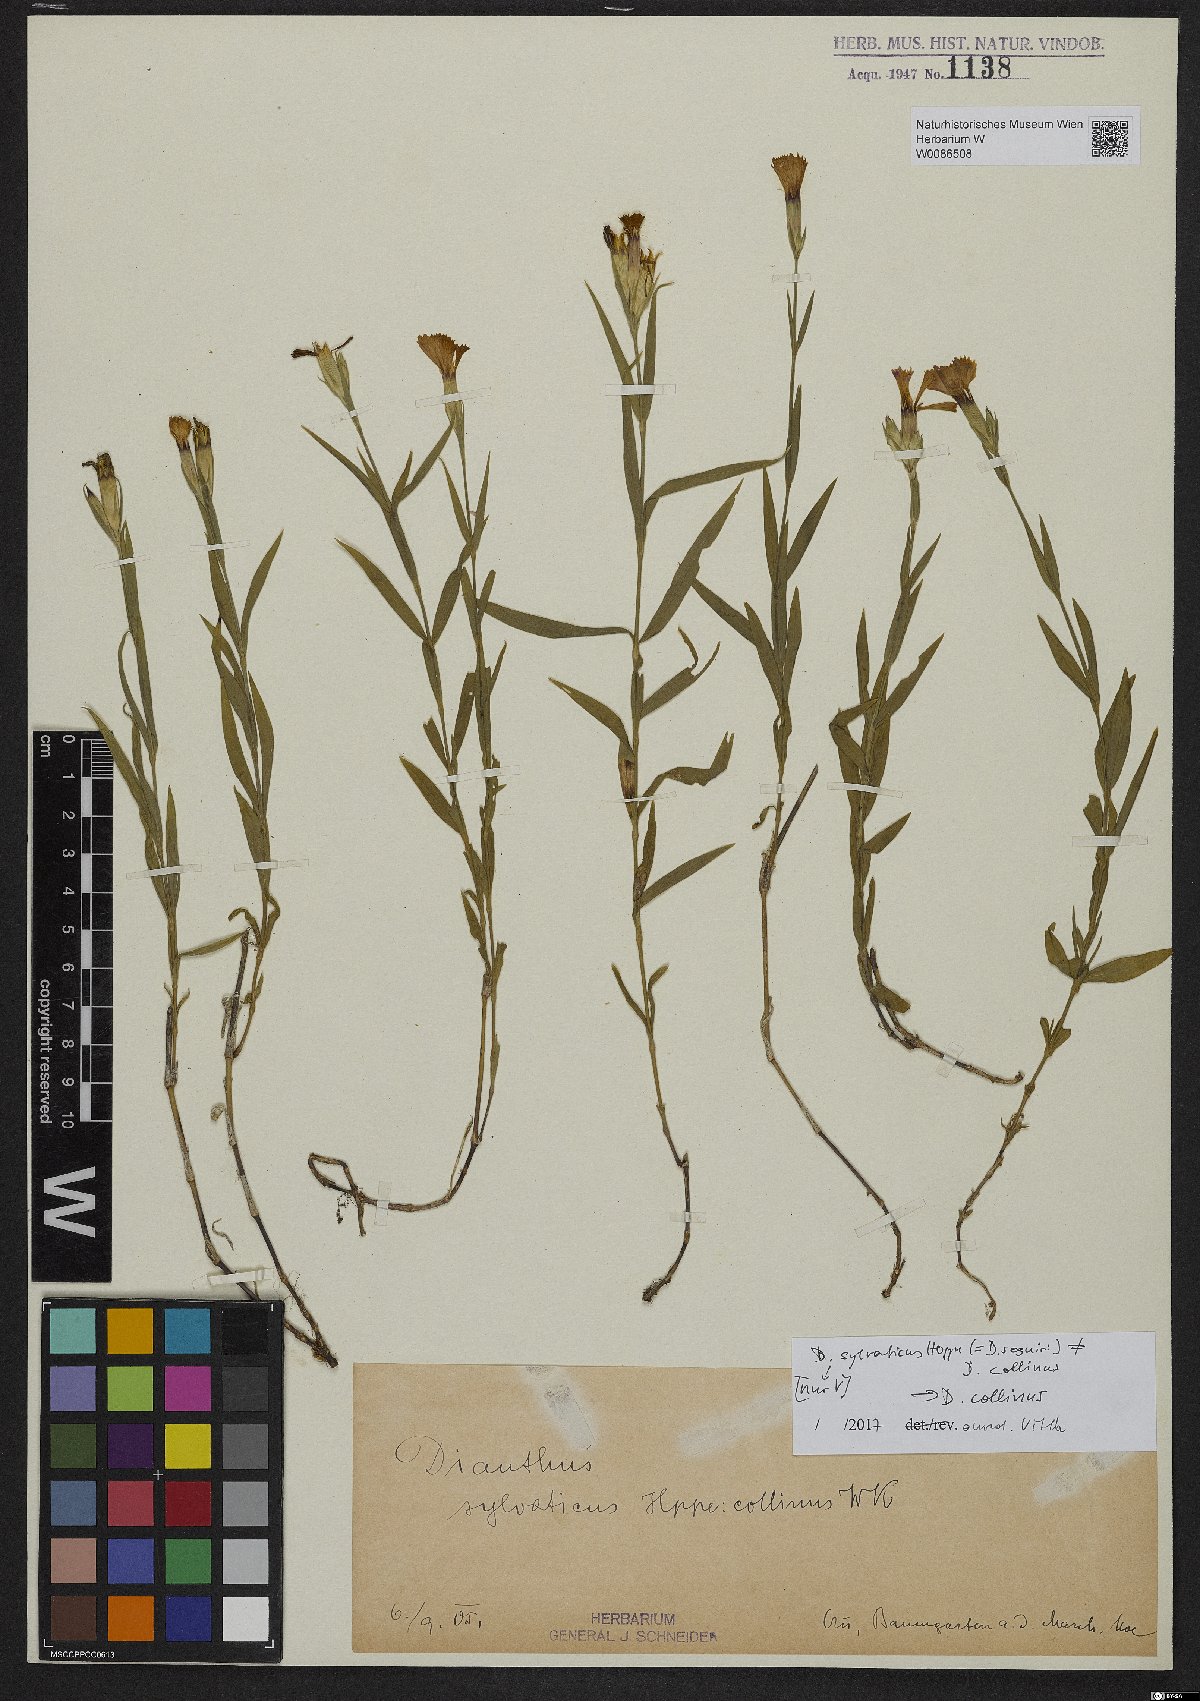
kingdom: Plantae
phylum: Tracheophyta
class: Magnoliopsida
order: Caryophyllales
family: Caryophyllaceae
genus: Dianthus
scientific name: Dianthus sylvaticus
